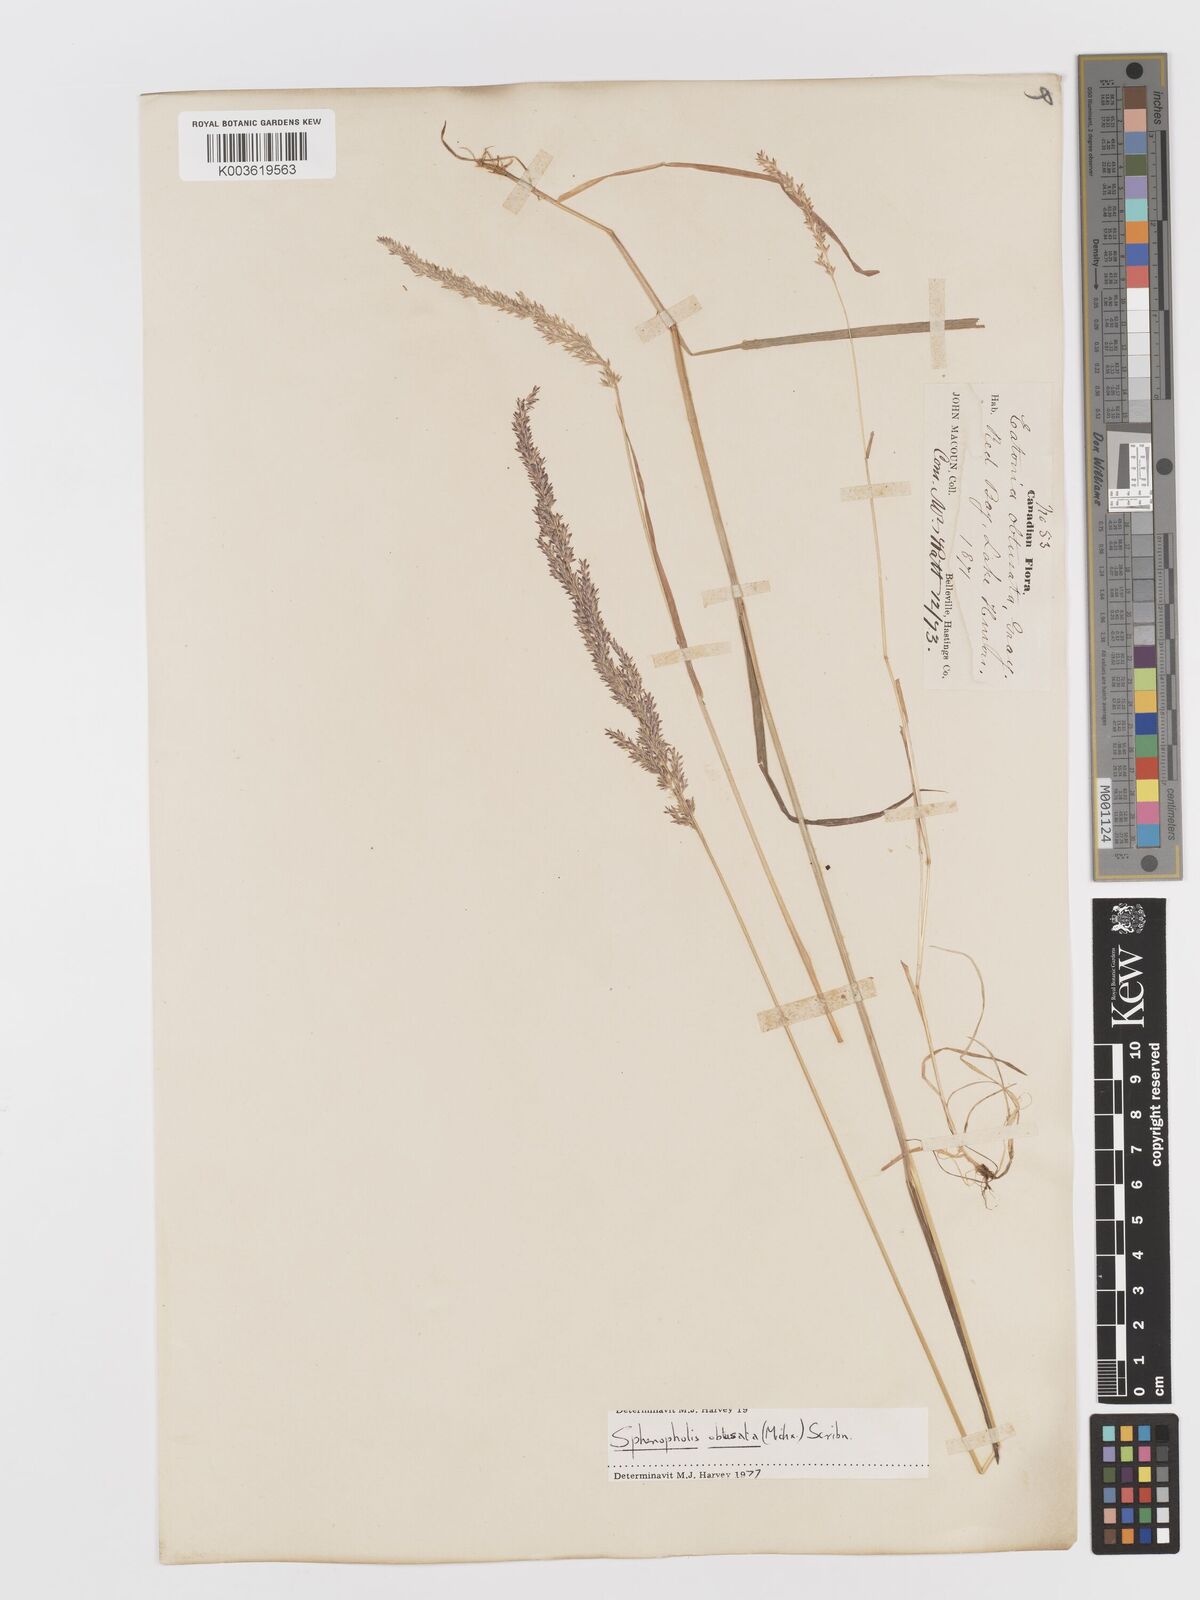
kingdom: Plantae
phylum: Tracheophyta
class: Liliopsida
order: Poales
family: Poaceae
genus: Sphenopholis
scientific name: Sphenopholis obtusata
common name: Prairie grass
